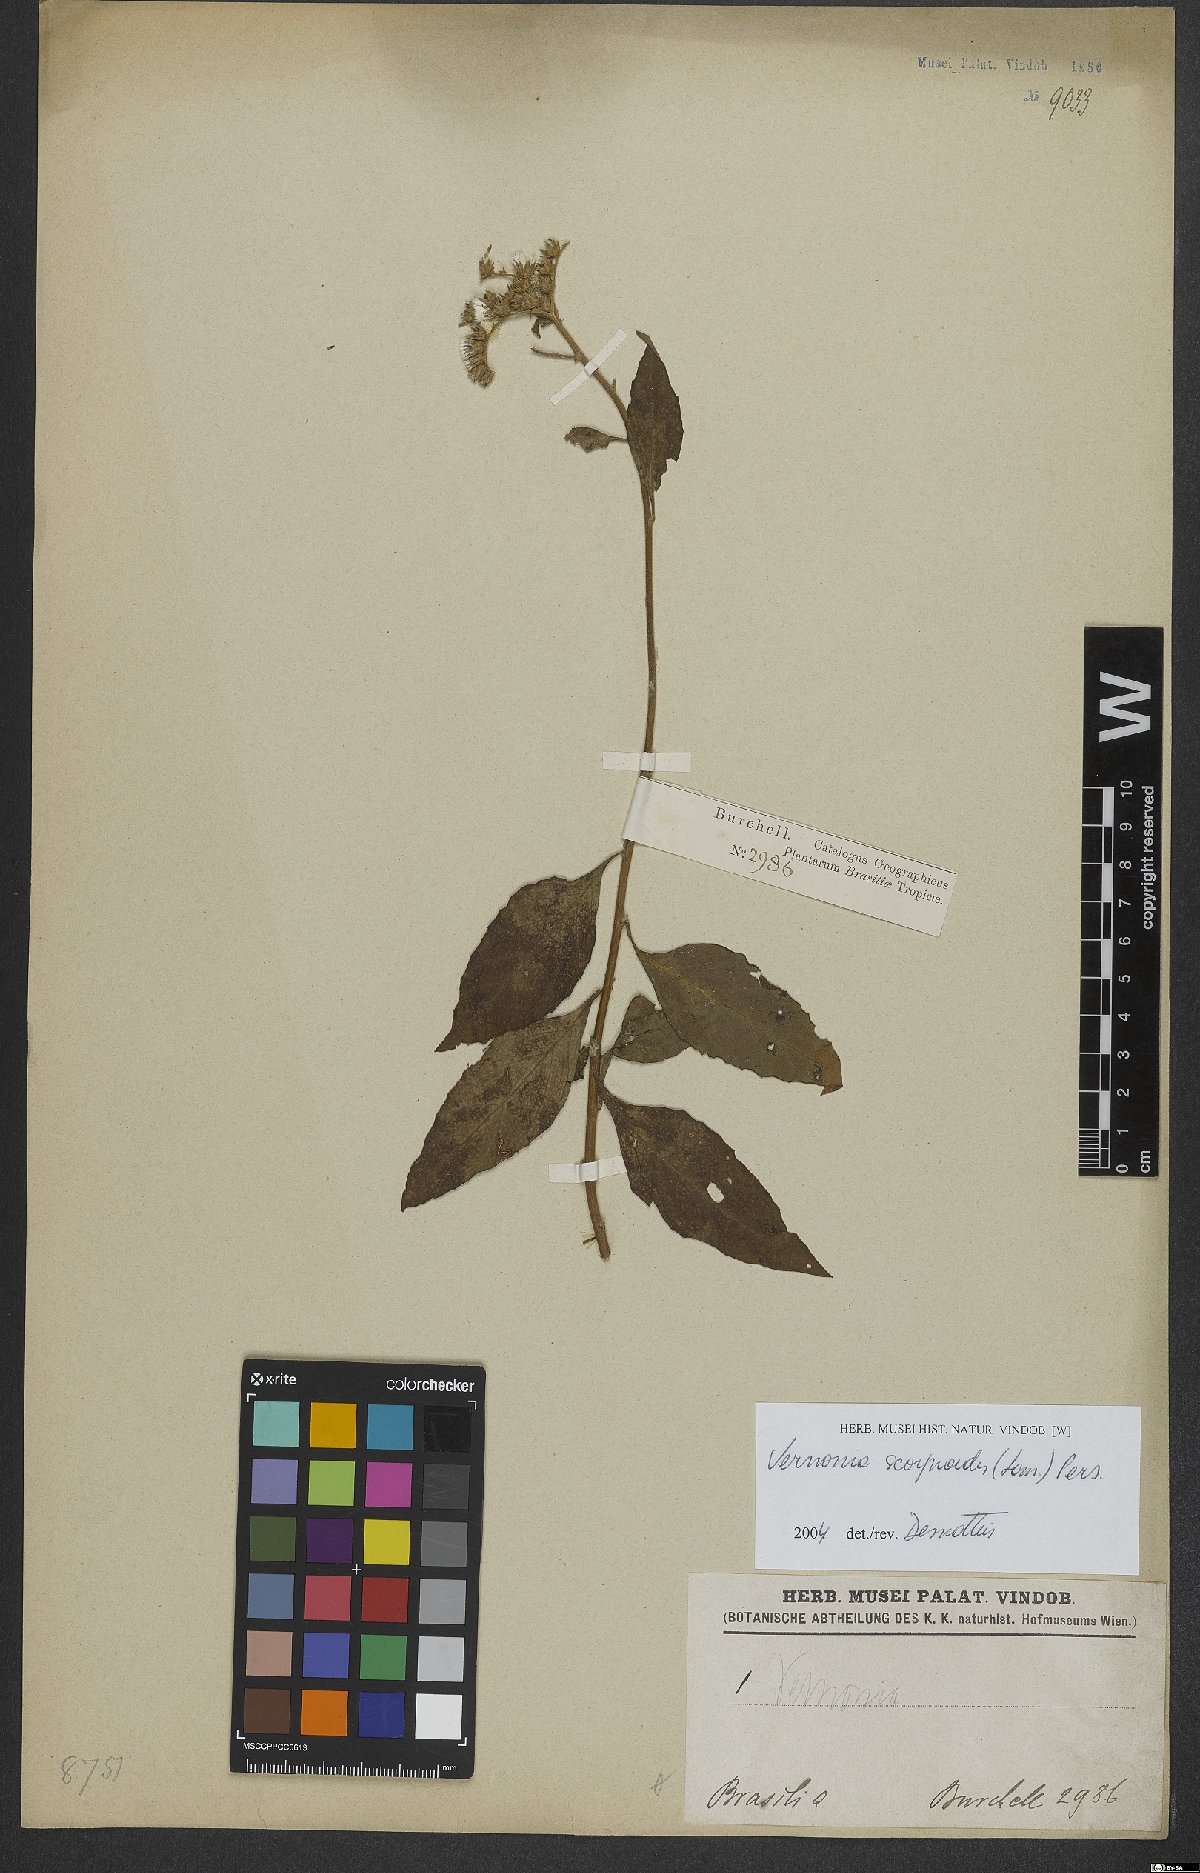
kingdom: Plantae
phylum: Tracheophyta
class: Magnoliopsida
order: Asterales
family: Asteraceae
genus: Cyrtocymura
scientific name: Cyrtocymura scorpioides
